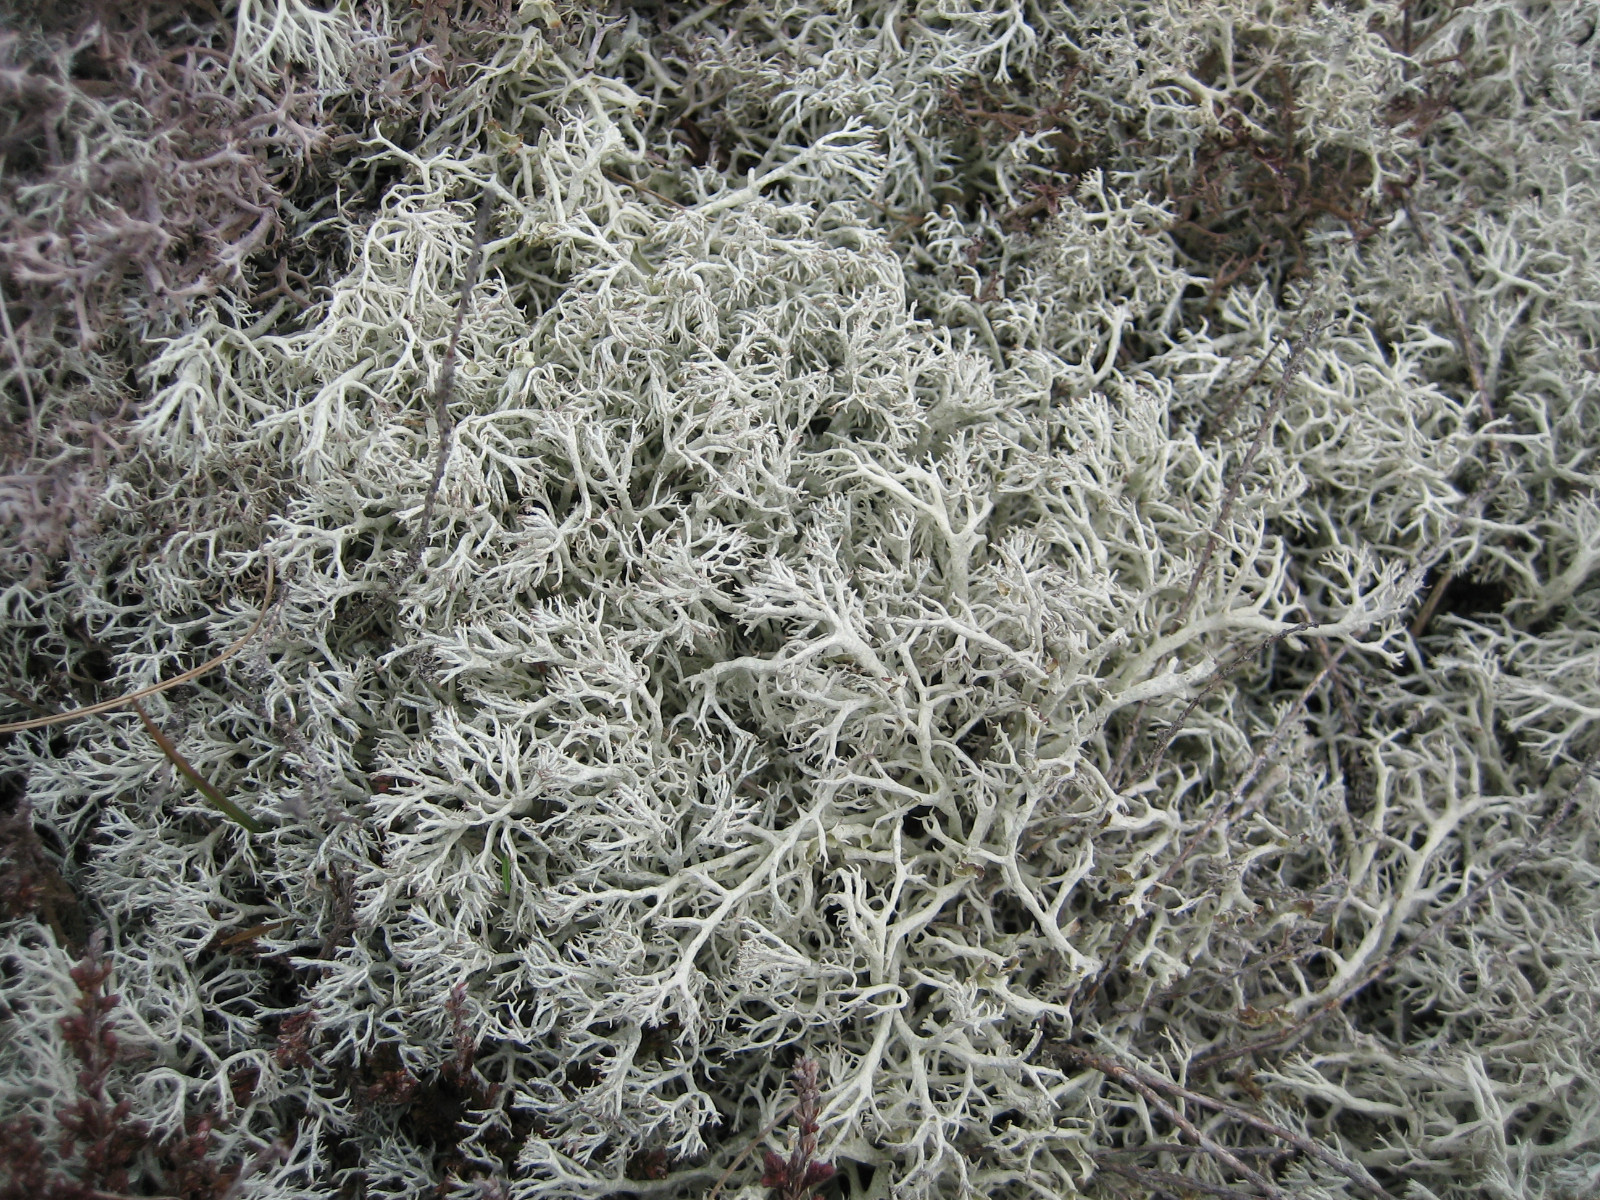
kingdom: Fungi
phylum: Ascomycota
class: Lecanoromycetes
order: Lecanorales
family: Cladoniaceae
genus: Cladonia
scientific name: Cladonia arbuscula
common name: gulhvid rensdyrlav
